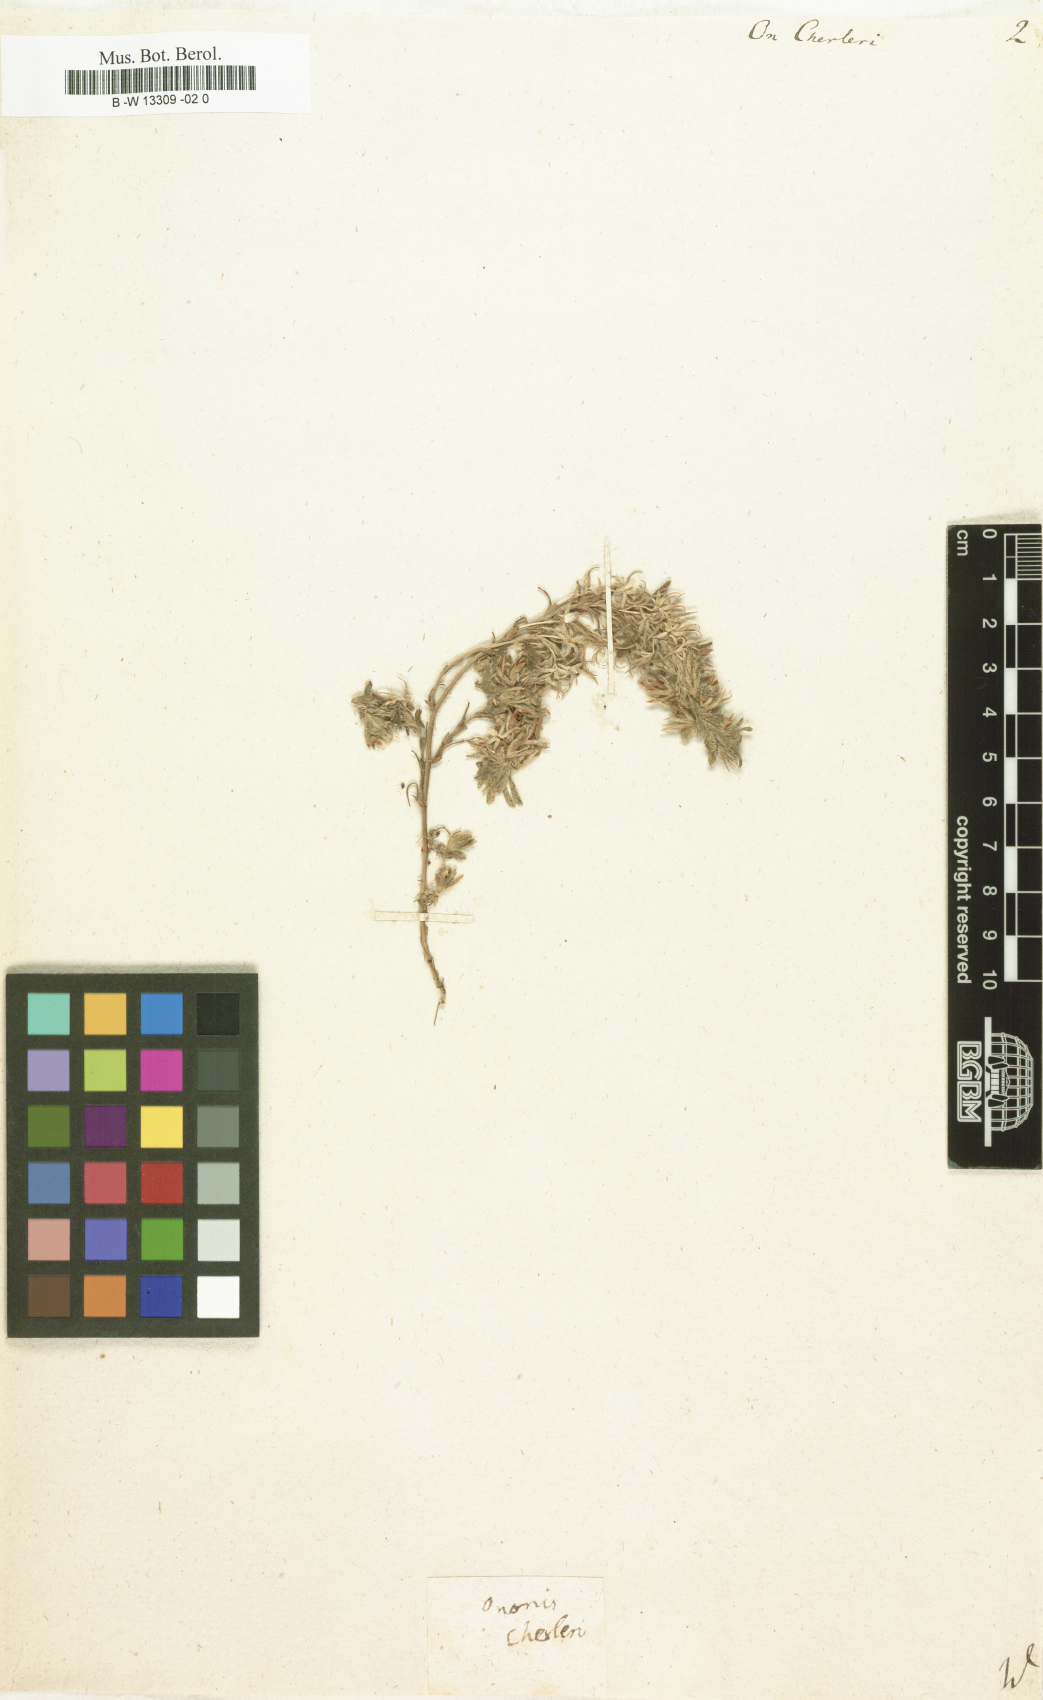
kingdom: Plantae
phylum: Tracheophyta
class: Magnoliopsida
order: Fabales
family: Fabaceae
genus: Ononis
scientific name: Ononis reclinata
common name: Small restharrow
